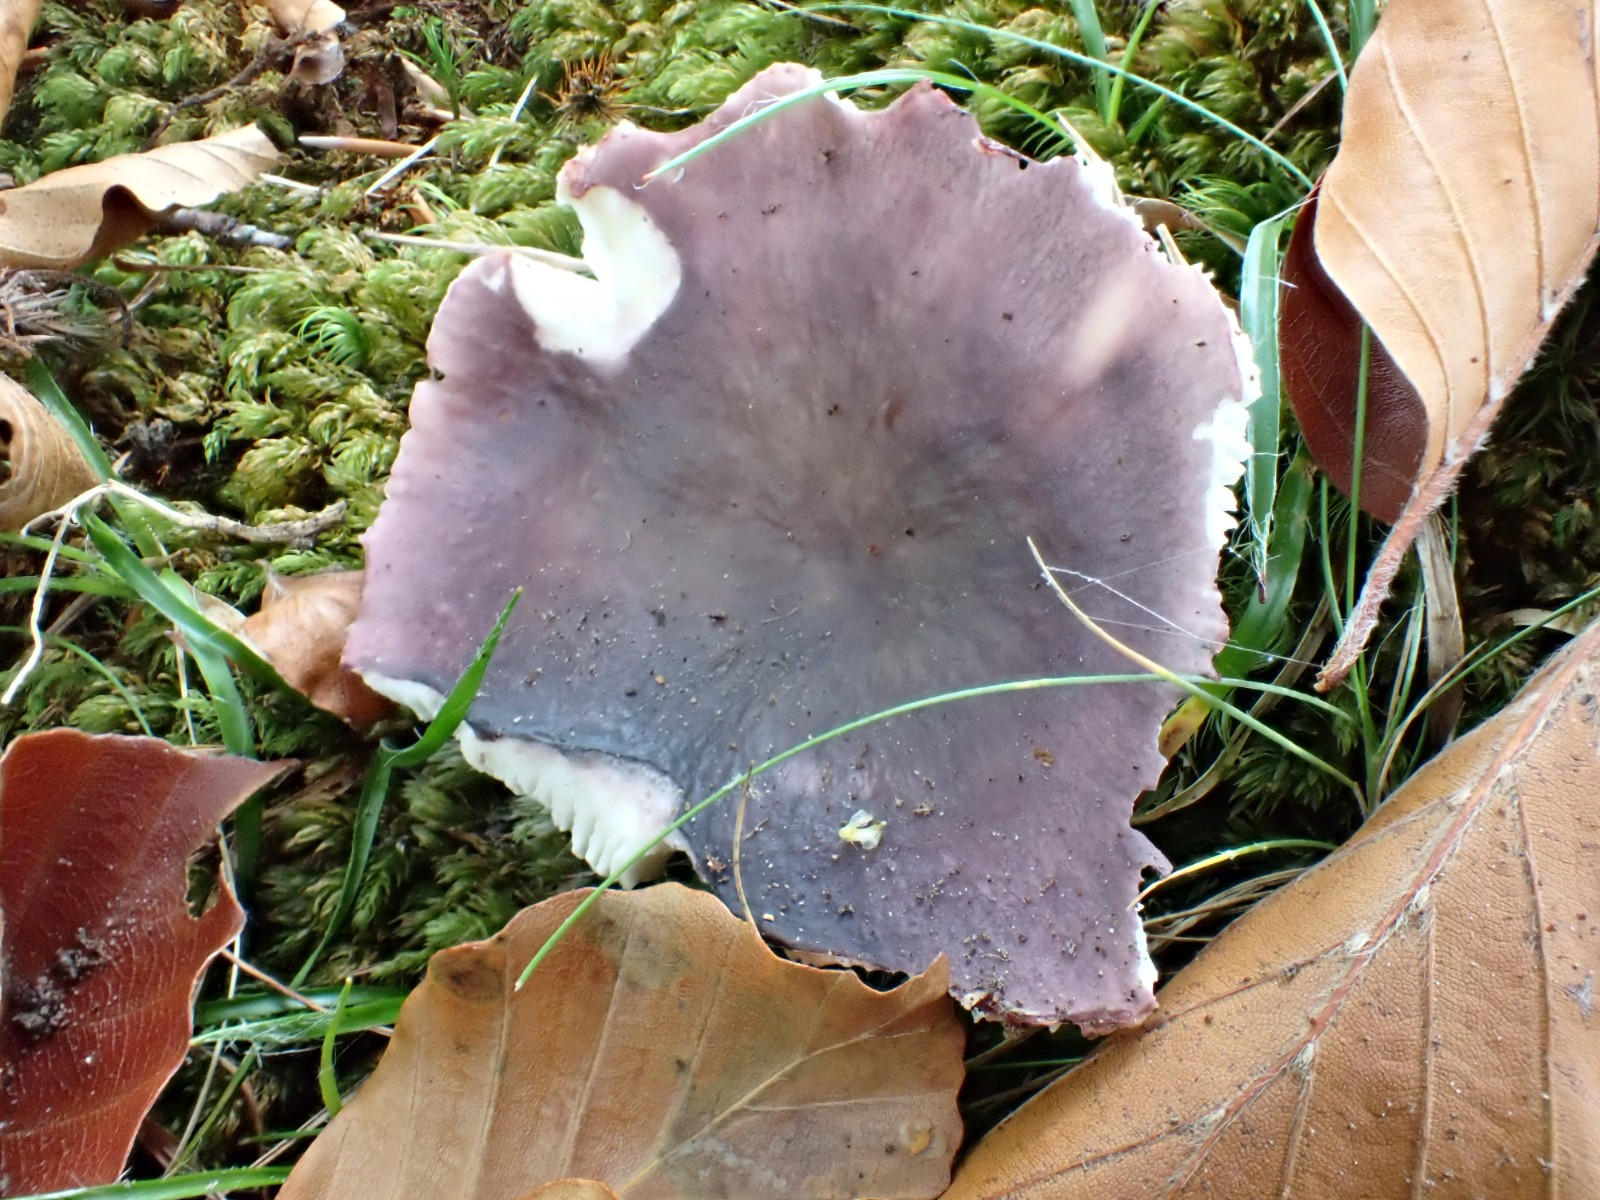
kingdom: Fungi
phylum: Basidiomycota
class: Agaricomycetes
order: Russulales
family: Russulaceae
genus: Russula
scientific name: Russula cyanoxantha
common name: broget skørhat
